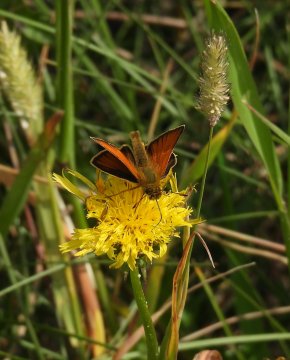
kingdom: Animalia
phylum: Arthropoda
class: Insecta
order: Lepidoptera
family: Hesperiidae
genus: Thymelicus
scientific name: Thymelicus lineola
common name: European Skipper
